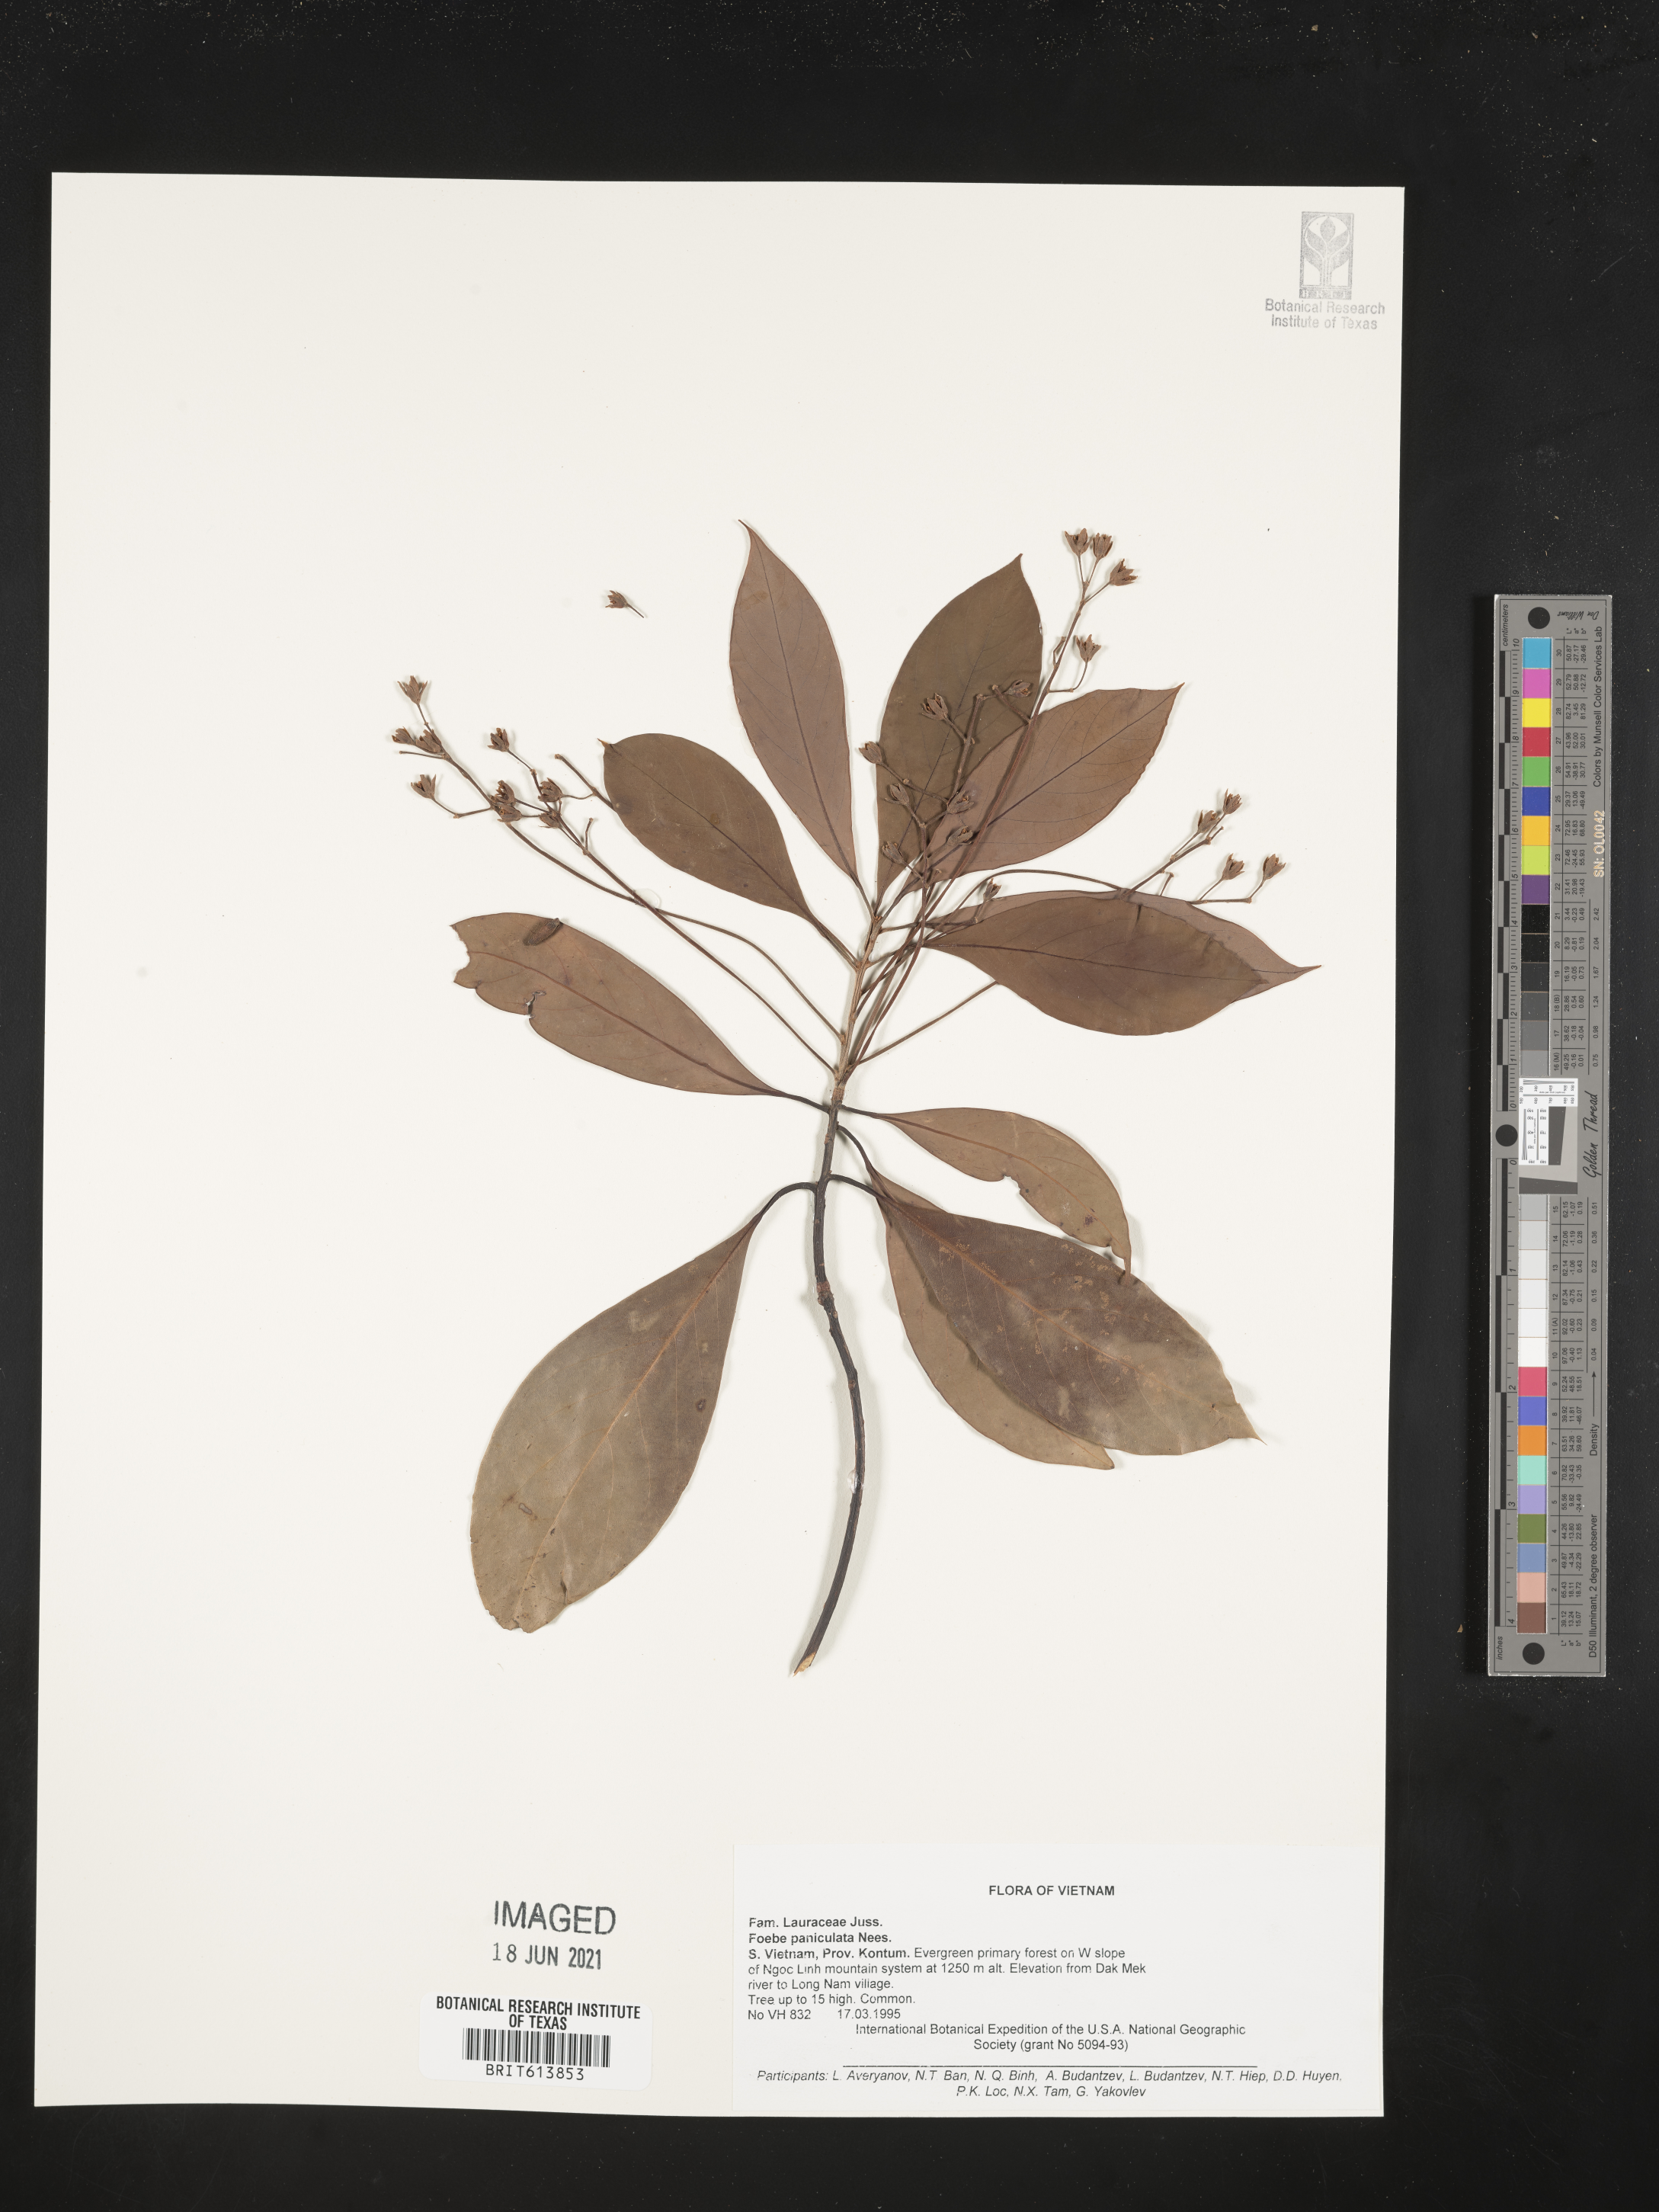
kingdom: Plantae
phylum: Tracheophyta
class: Magnoliopsida
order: Laurales
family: Lauraceae
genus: Phoebe
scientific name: Phoebe cathia
